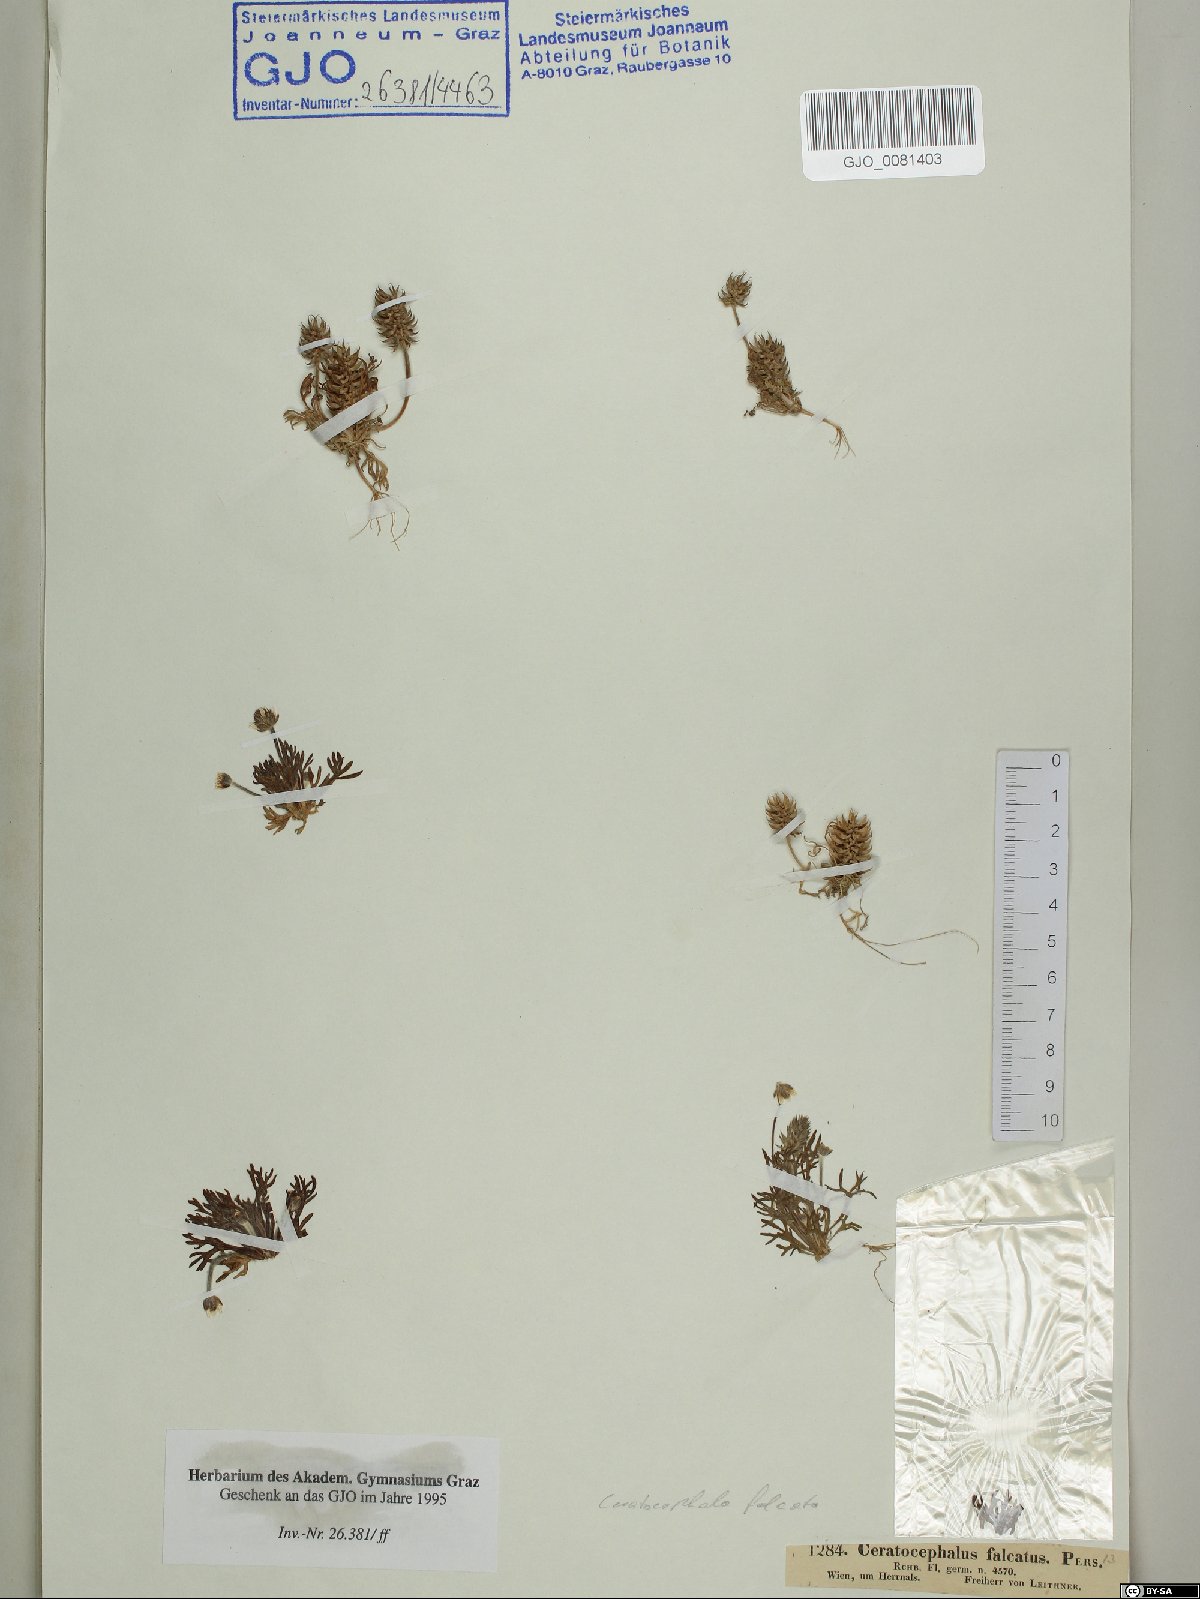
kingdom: Plantae
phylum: Tracheophyta
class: Magnoliopsida
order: Ranunculales
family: Ranunculaceae
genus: Ceratocephala
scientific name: Ceratocephala falcata
